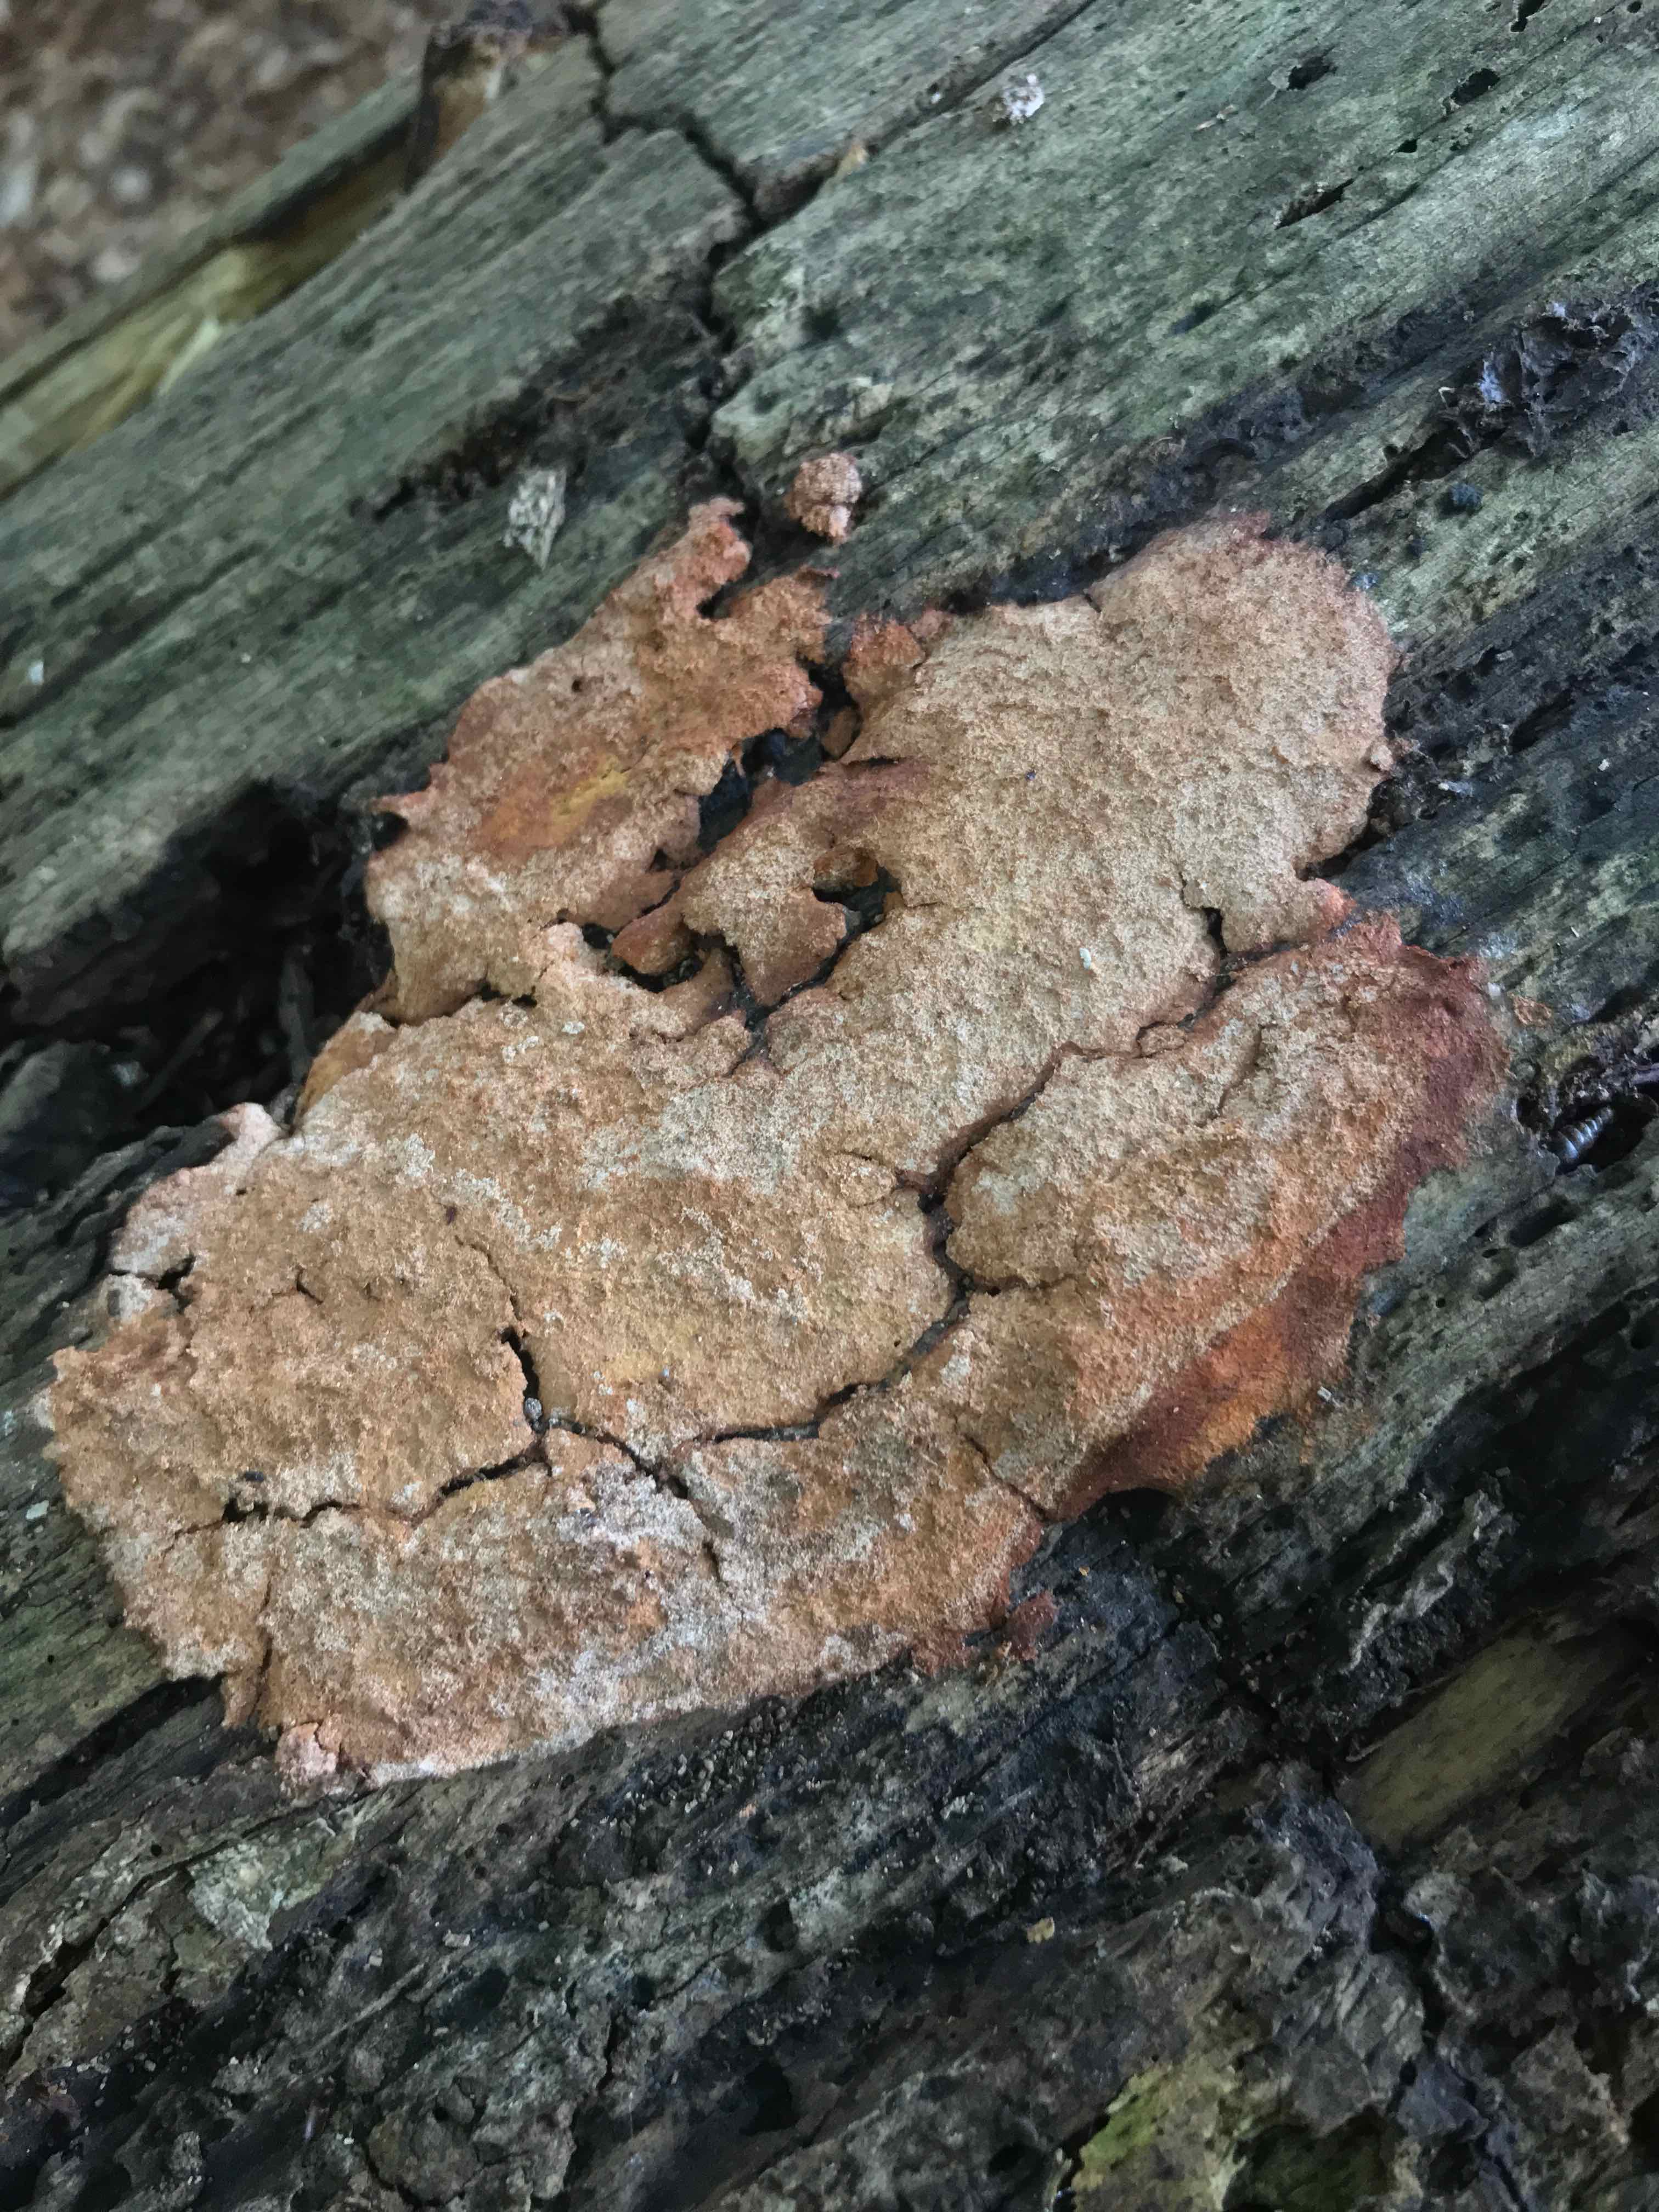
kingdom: Protozoa
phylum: Mycetozoa
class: Myxomycetes
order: Physarales
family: Physaraceae
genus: Fuligo
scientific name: Fuligo septica
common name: gul troldsmør
